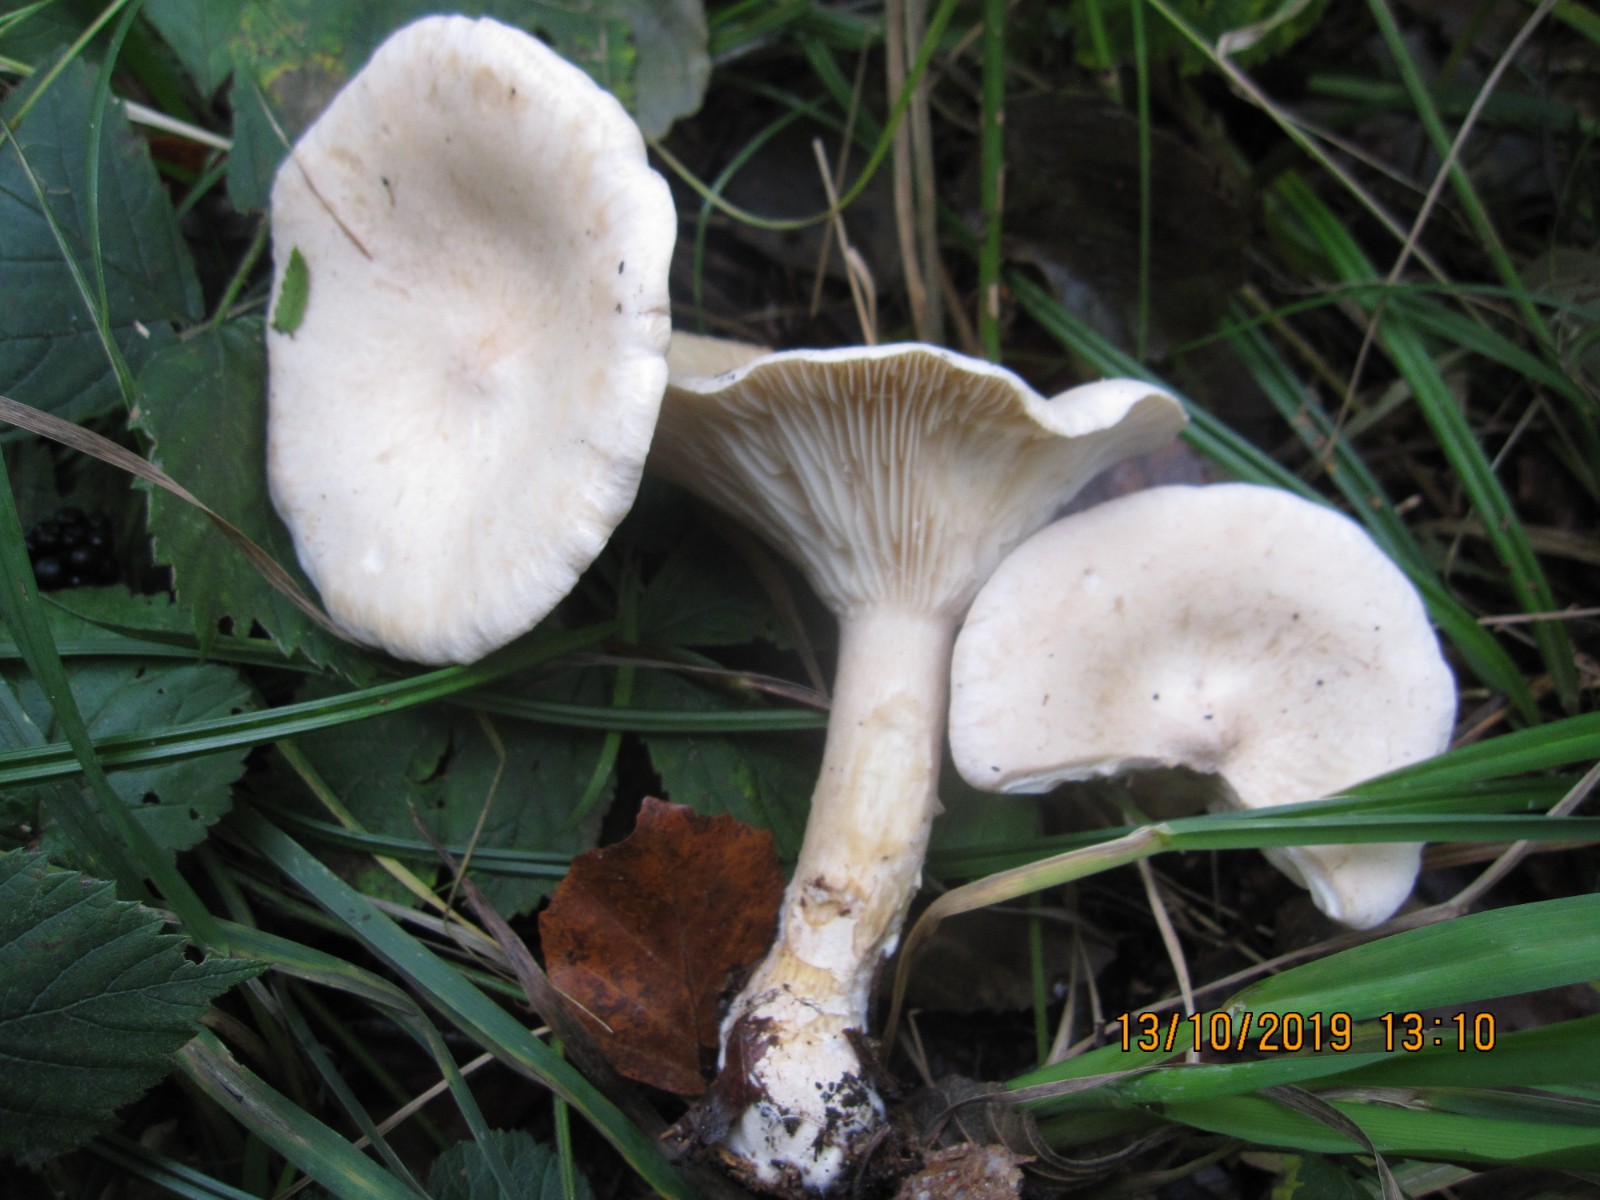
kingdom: Fungi
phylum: Basidiomycota
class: Agaricomycetes
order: Agaricales
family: Tricholomataceae
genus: Infundibulicybe
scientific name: Infundibulicybe geotropa
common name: stor tragthat
